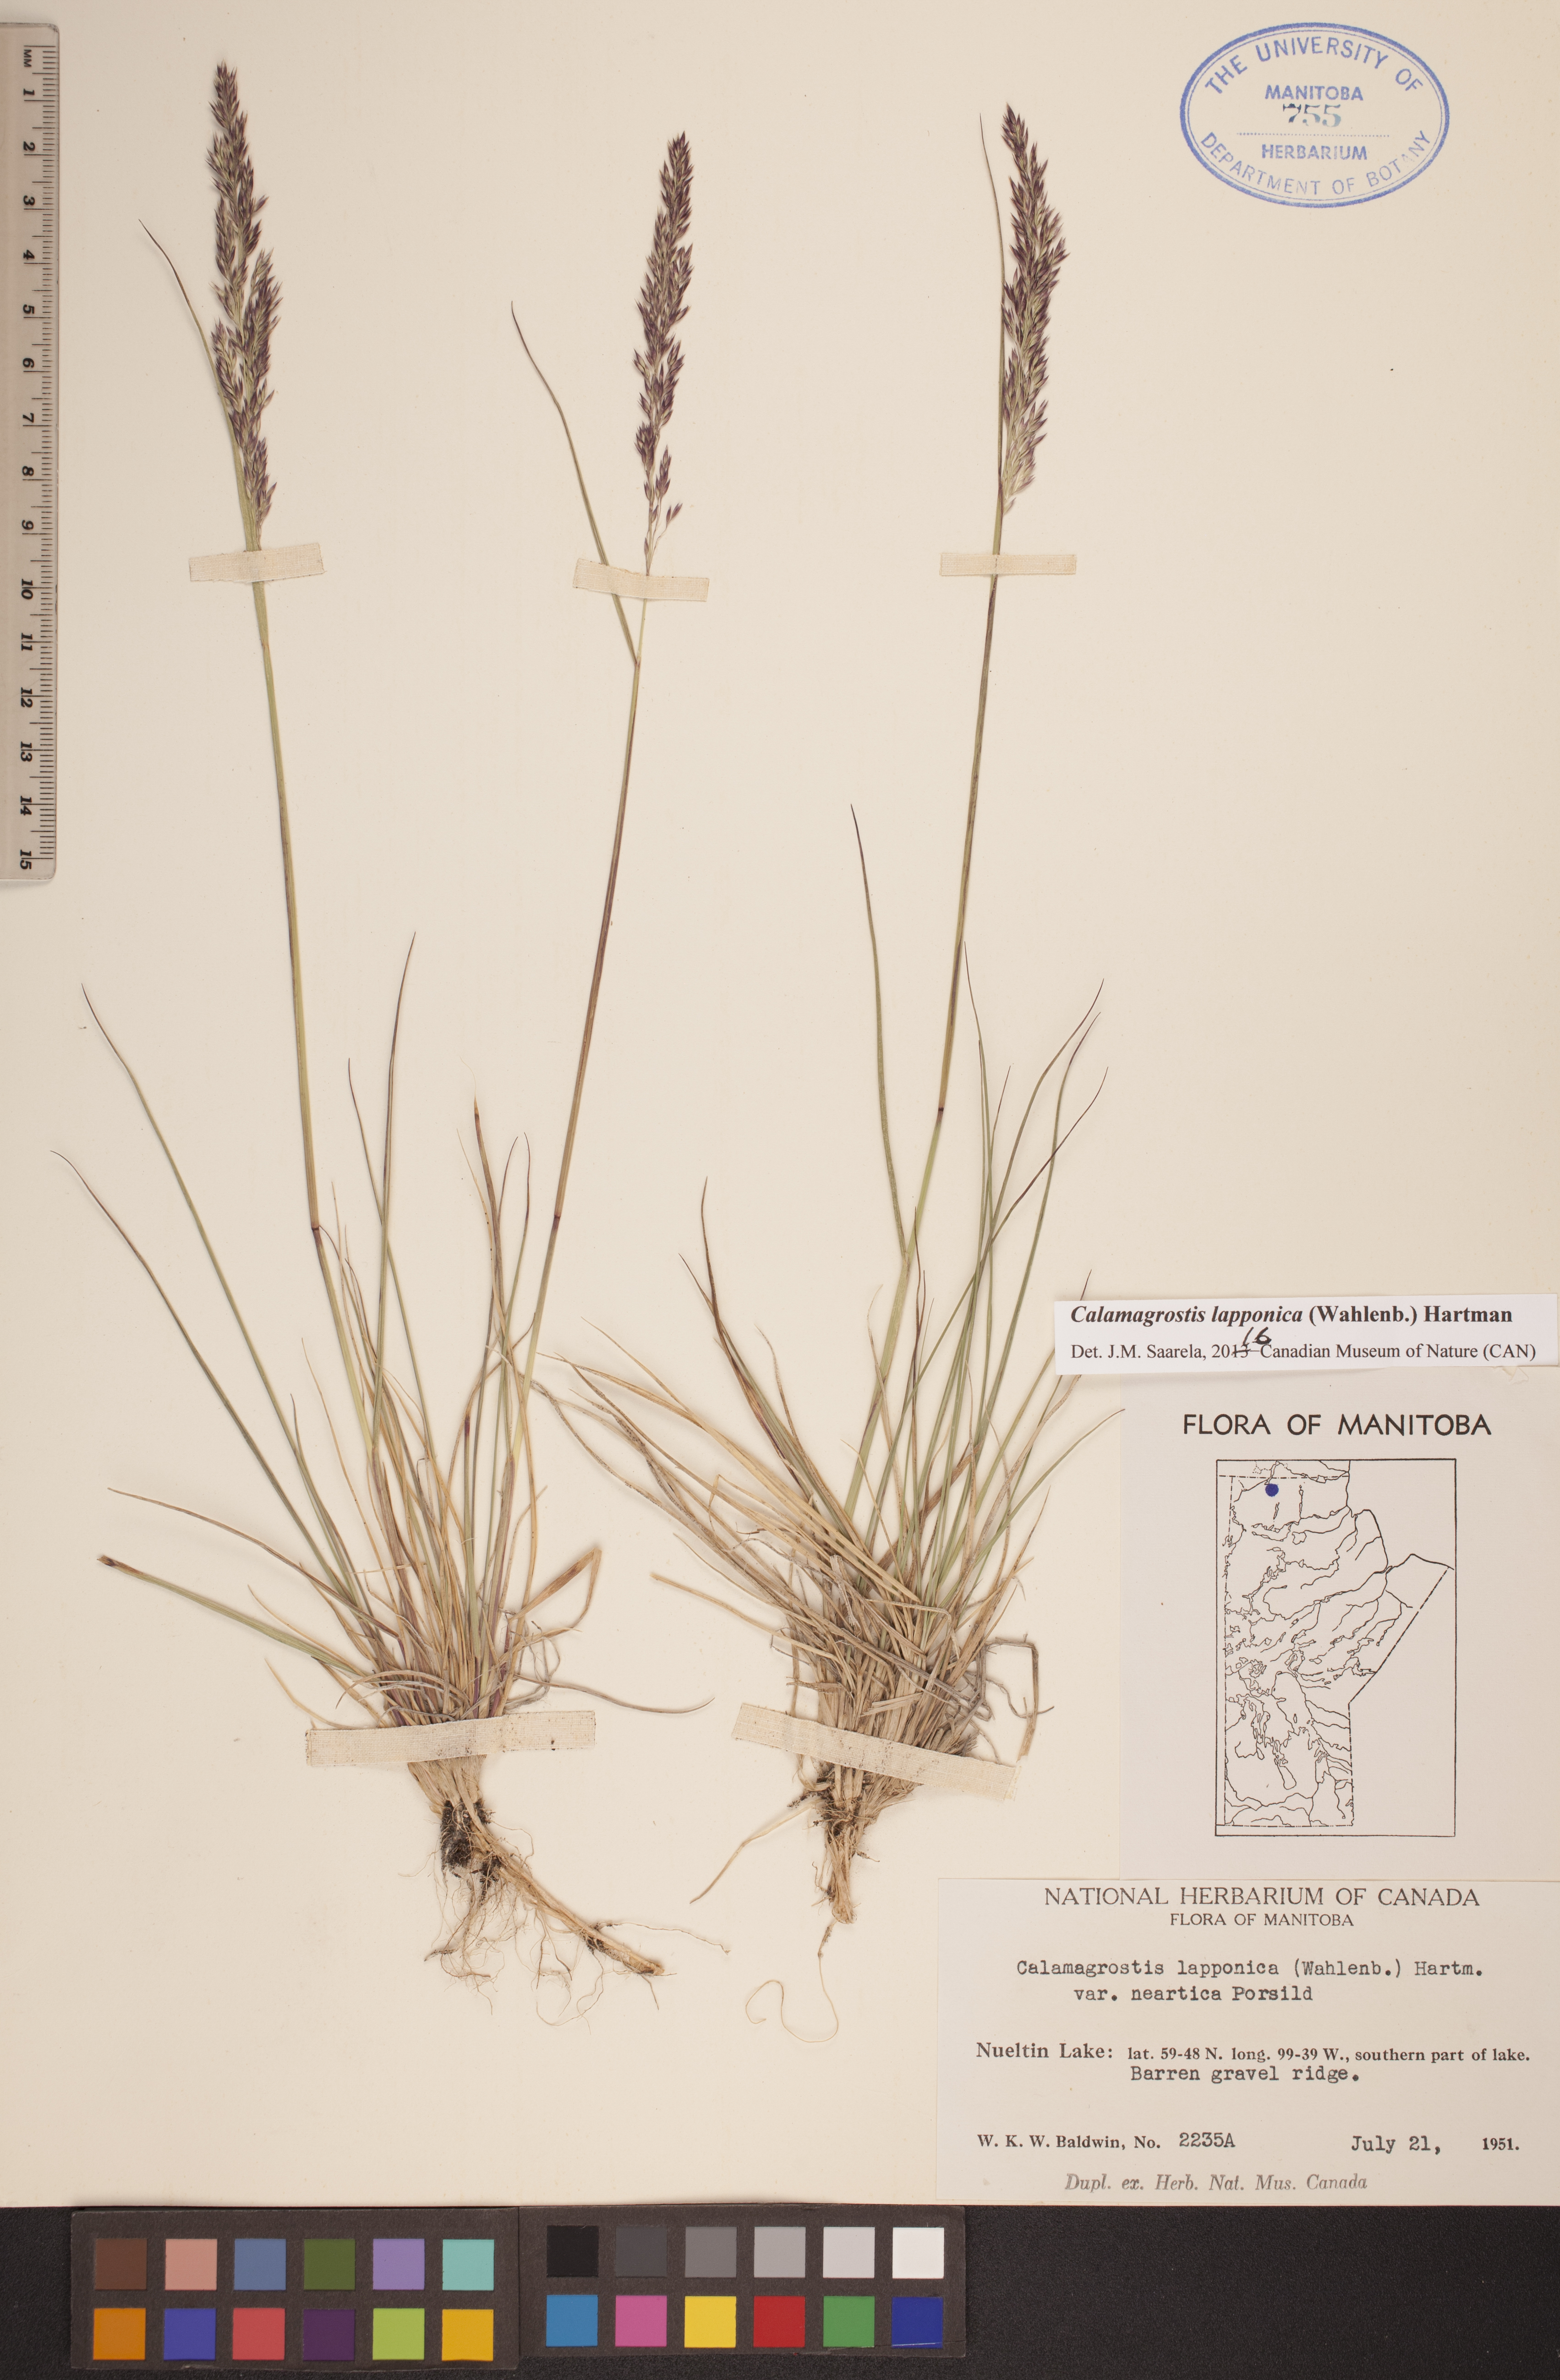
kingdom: Plantae
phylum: Tracheophyta
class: Liliopsida
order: Poales
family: Poaceae
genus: Calamagrostis
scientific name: Calamagrostis lapponica
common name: Lapland reedgrass
